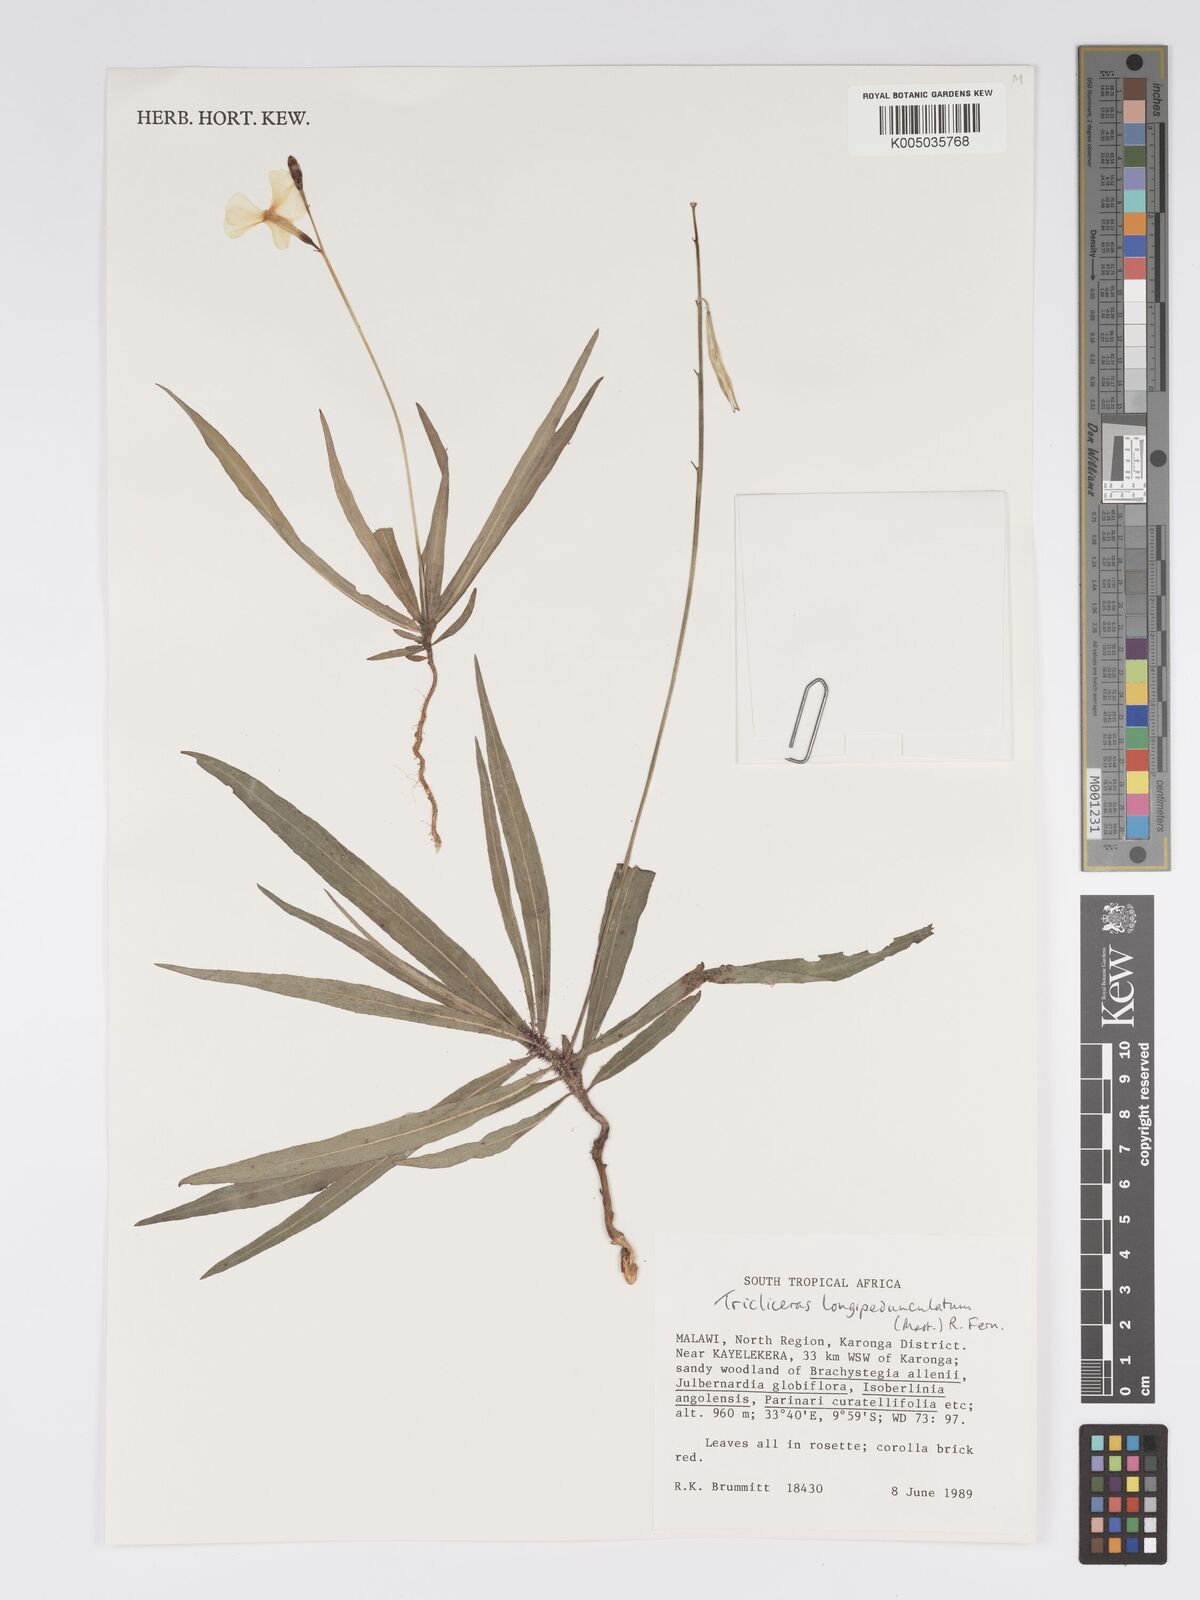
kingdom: Plantae
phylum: Tracheophyta
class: Magnoliopsida
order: Malpighiales
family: Turneraceae
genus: Tricliceras
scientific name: Tricliceras longepedunculatum
